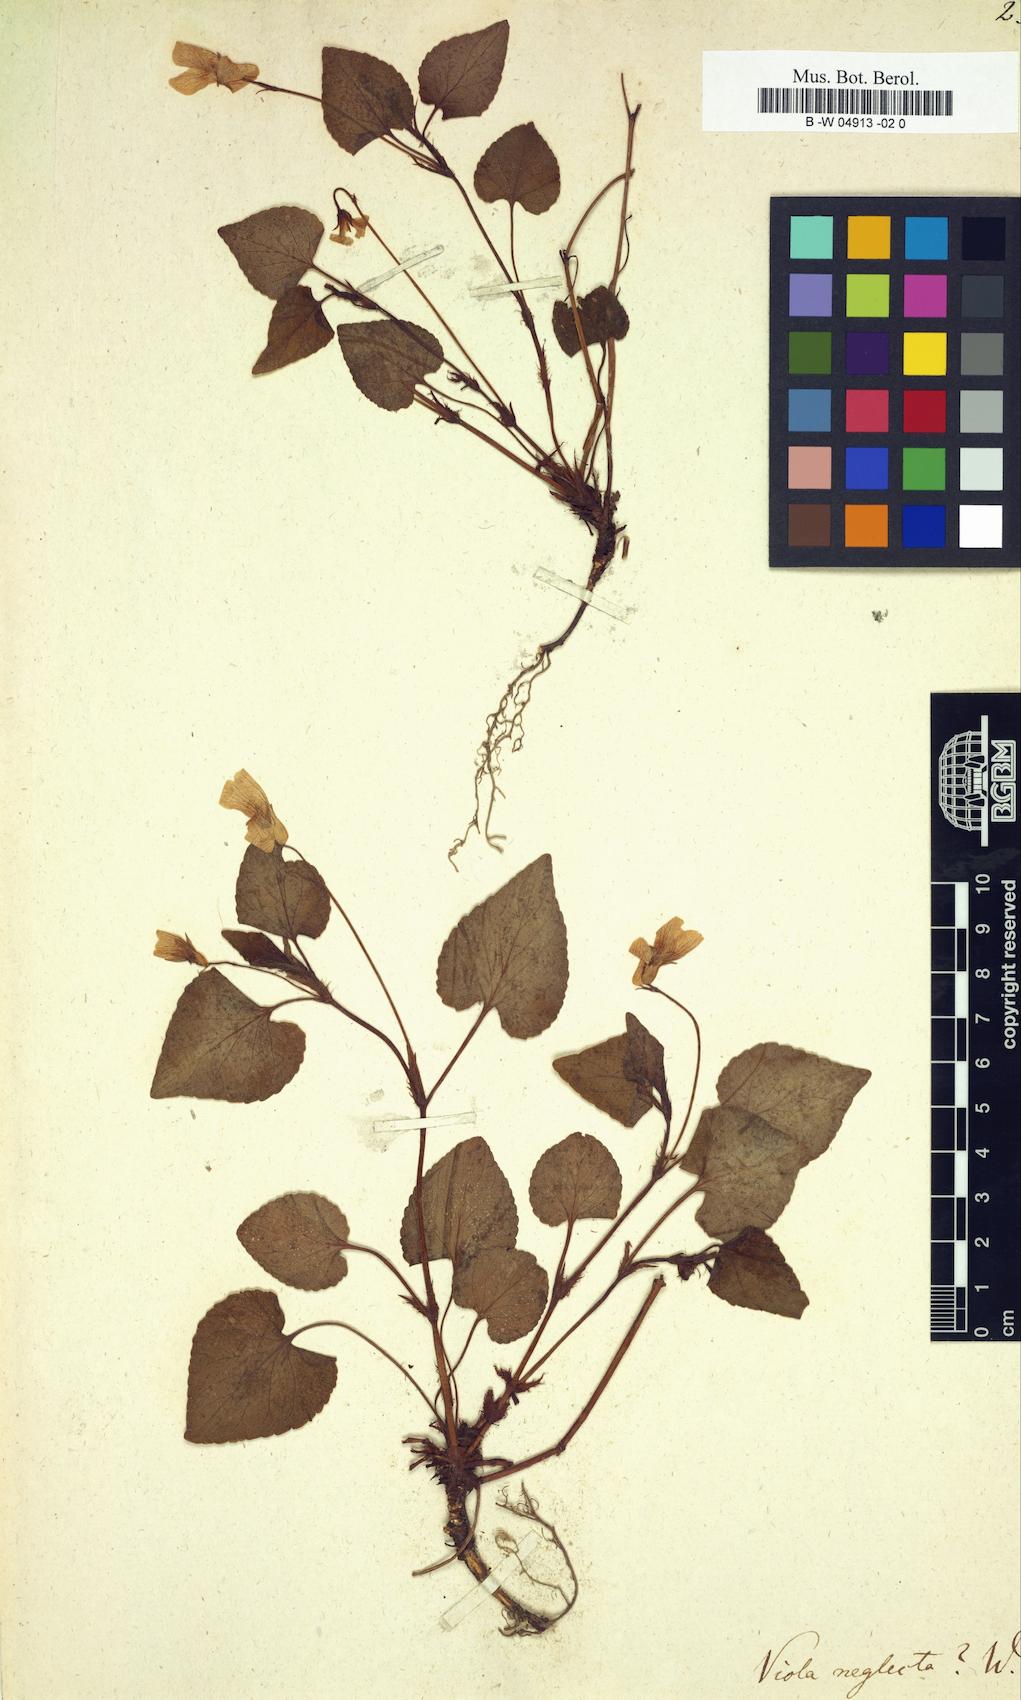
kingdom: Plantae
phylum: Tracheophyta
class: Magnoliopsida
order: Malpighiales
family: Violaceae
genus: Viola
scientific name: Viola neglecta
